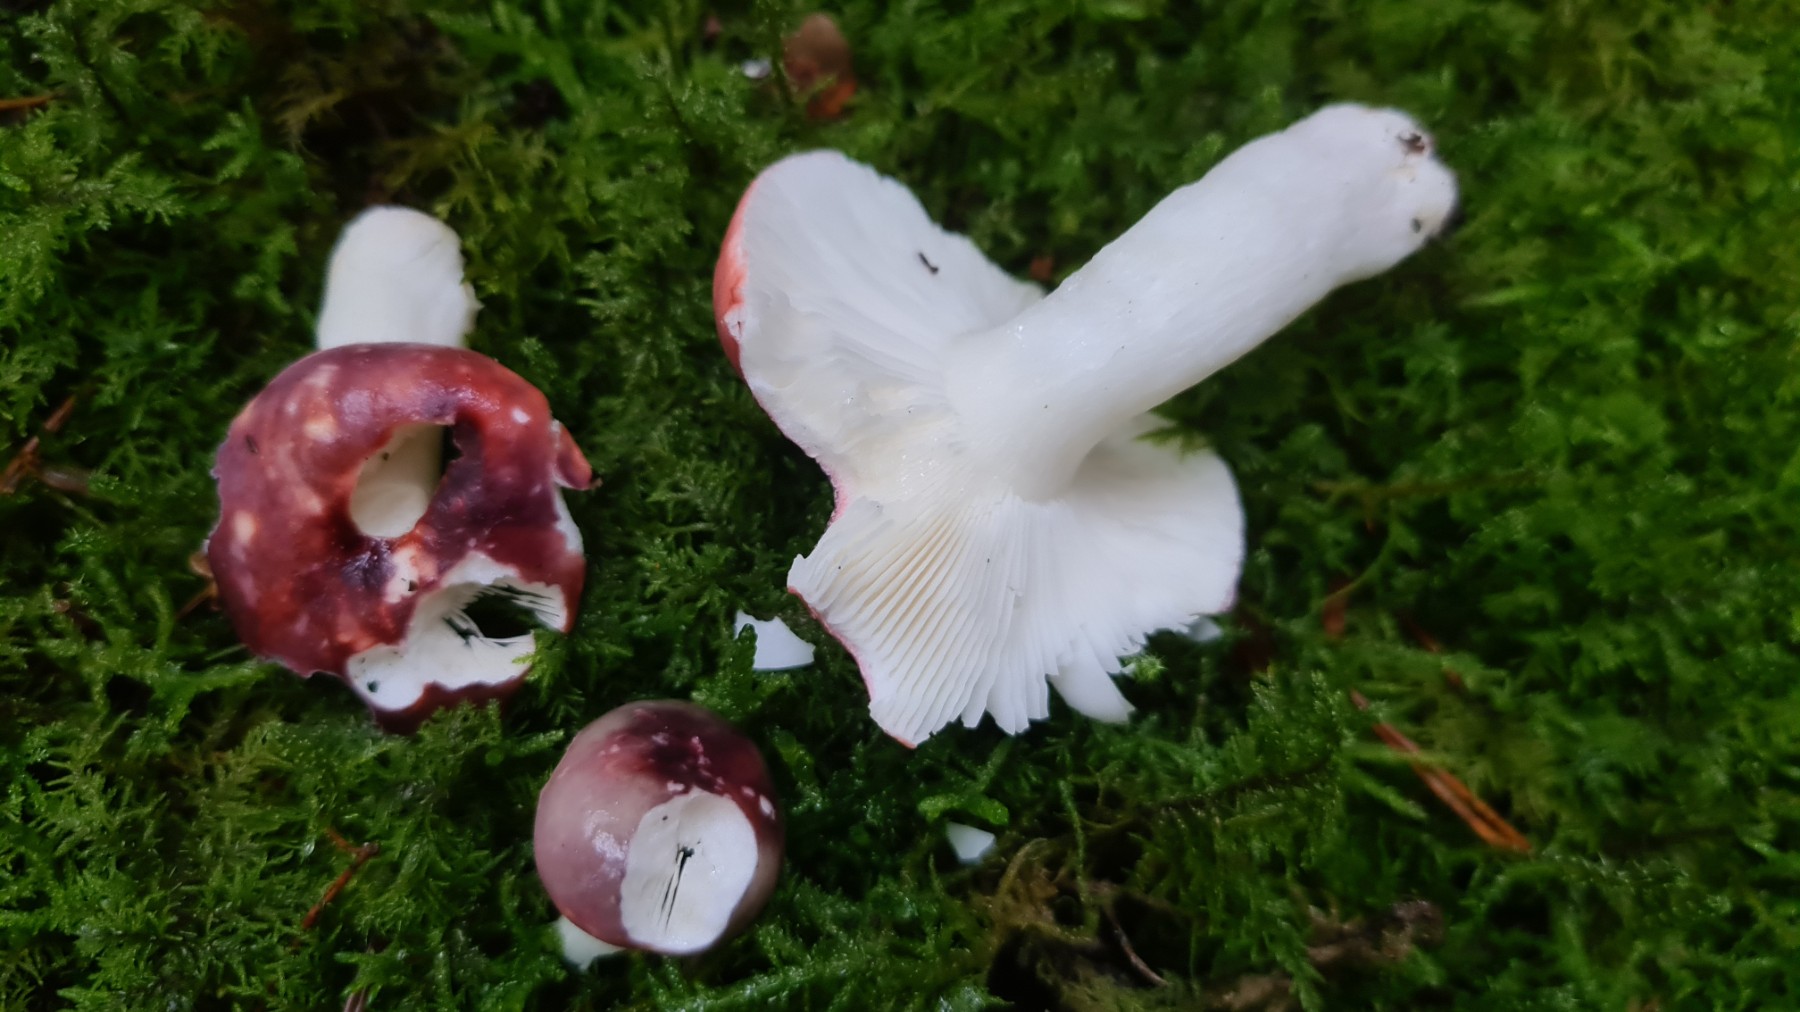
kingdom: Fungi
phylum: Basidiomycota
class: Agaricomycetes
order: Russulales
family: Russulaceae
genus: Russula
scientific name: Russula atrorubens
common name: sortrød skørhat
